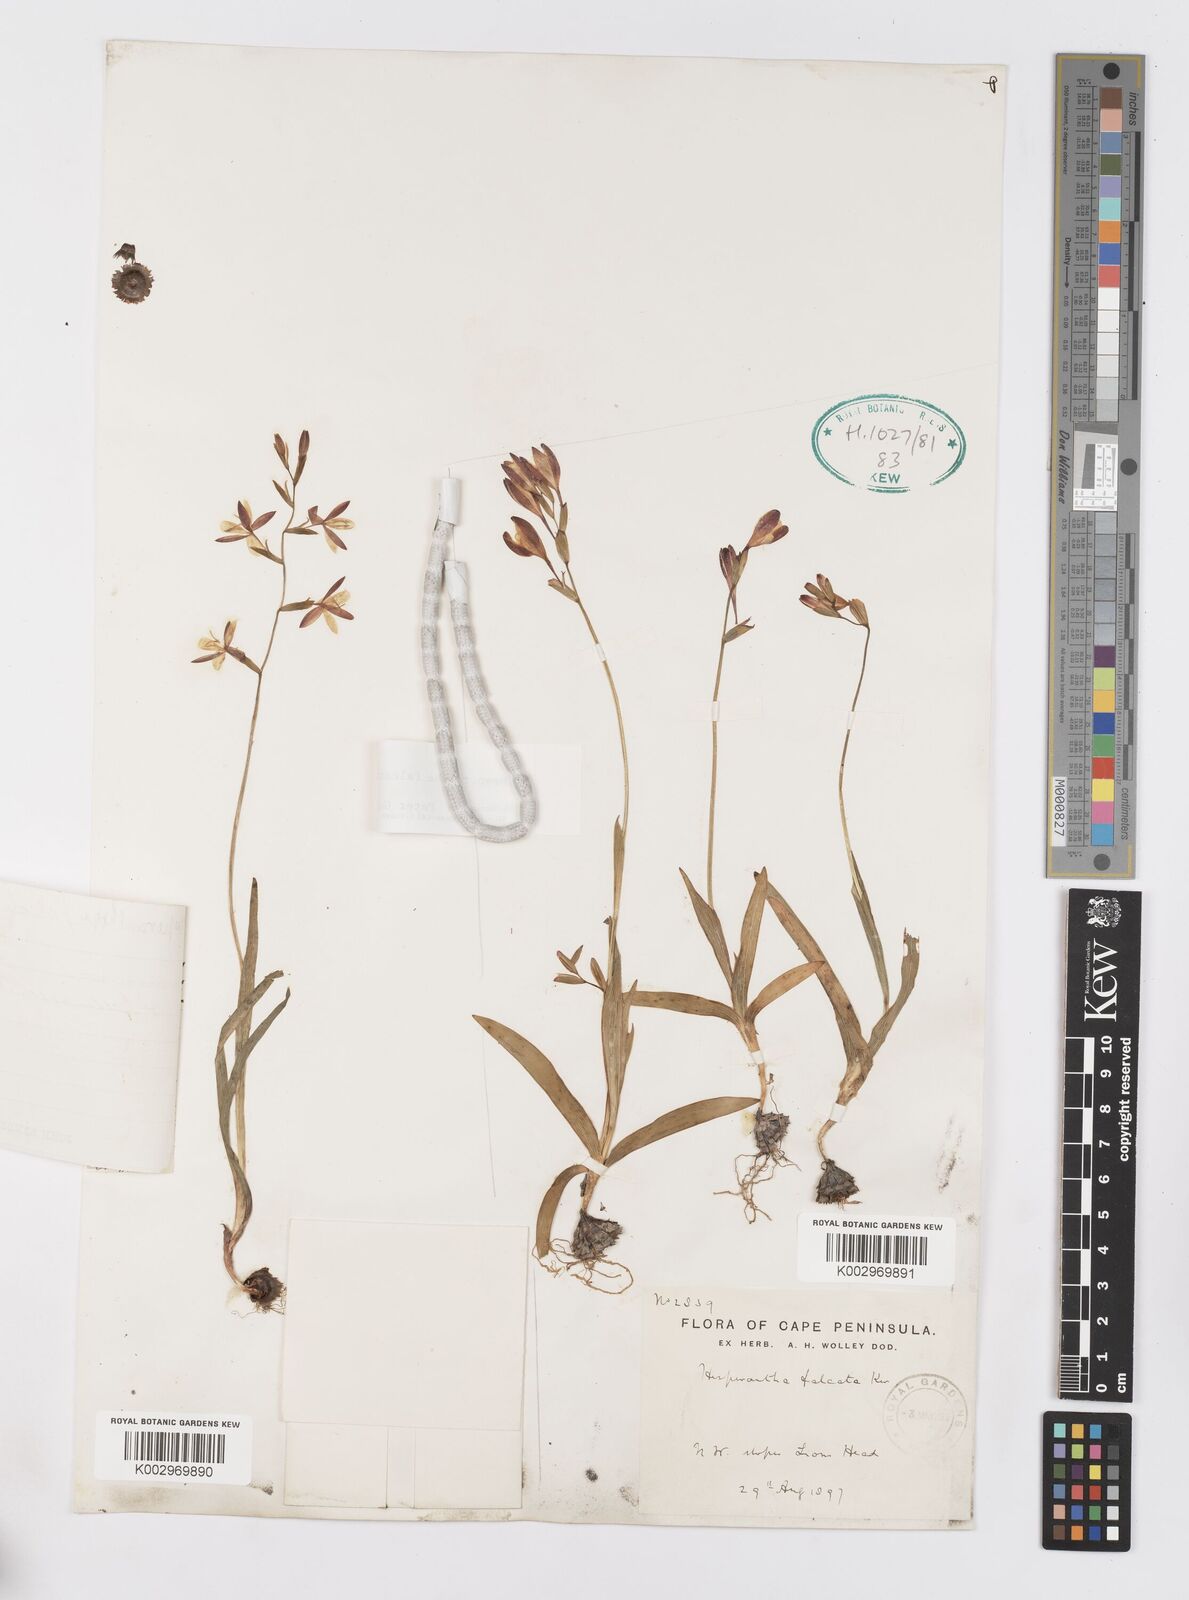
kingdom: Plantae
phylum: Tracheophyta
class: Liliopsida
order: Asparagales
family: Iridaceae
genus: Hesperantha
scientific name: Hesperantha falcata
